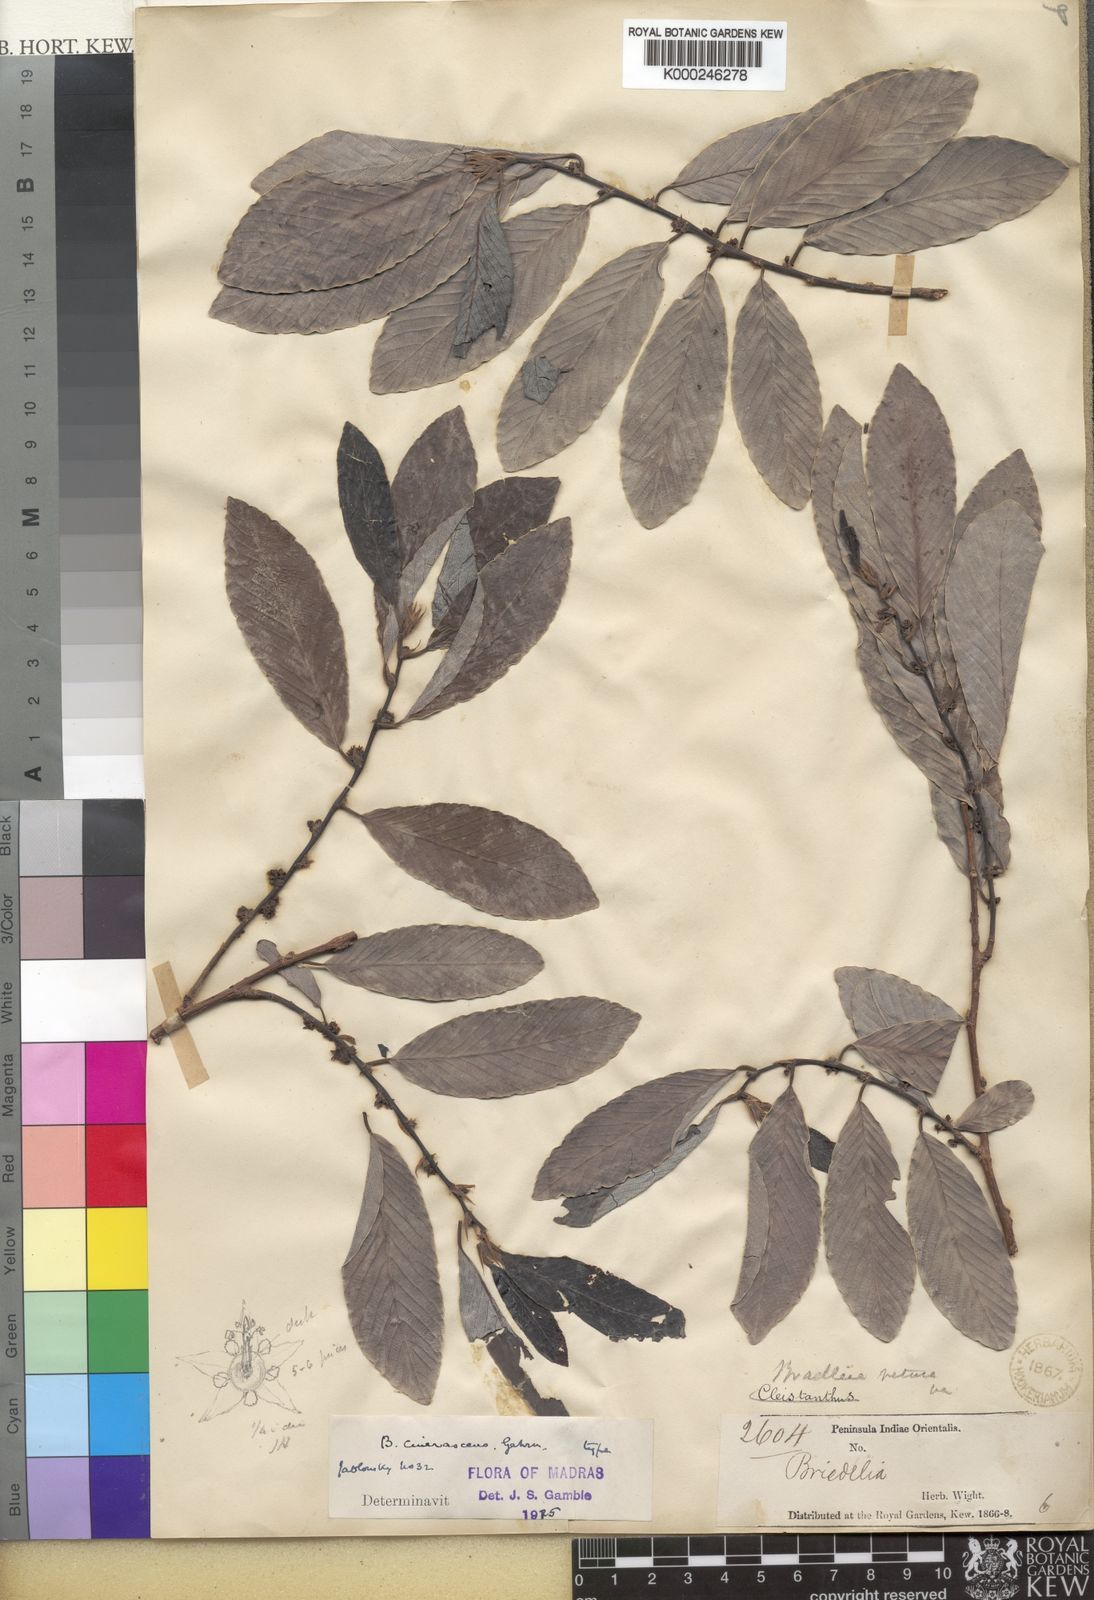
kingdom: Plantae
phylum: Tracheophyta
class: Magnoliopsida
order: Malpighiales
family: Phyllanthaceae
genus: Bridelia
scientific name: Bridelia retusa
